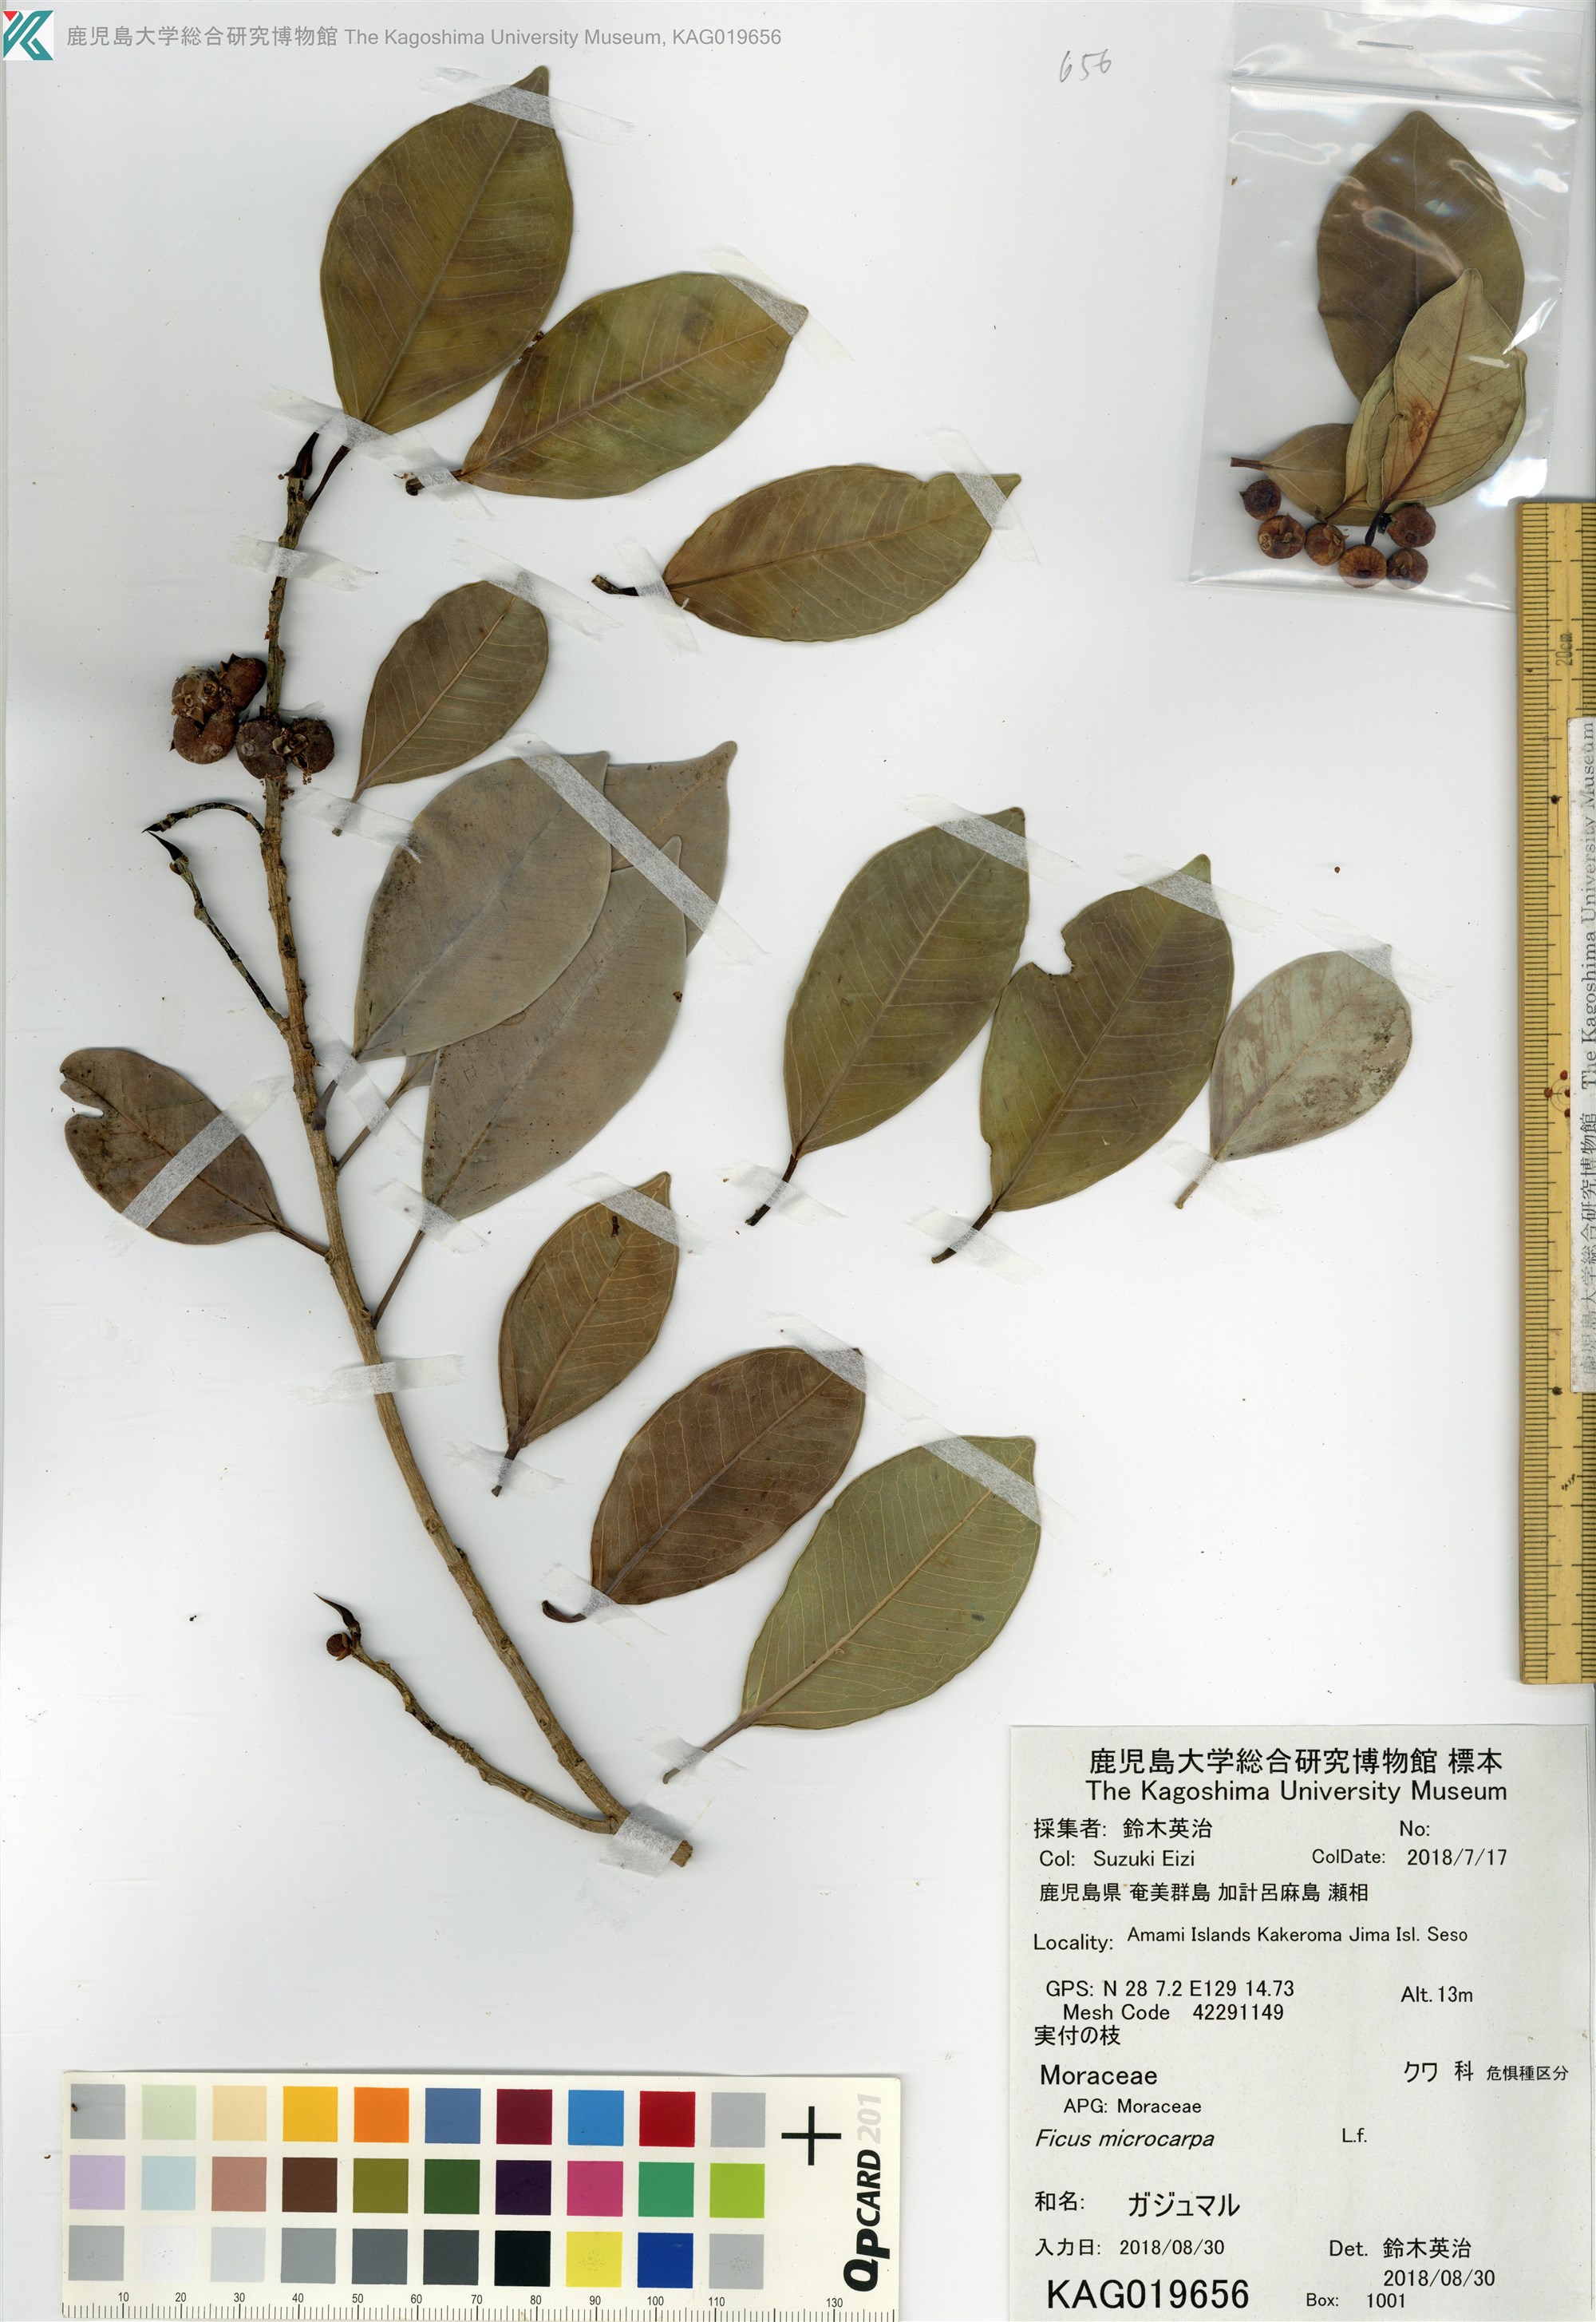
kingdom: Plantae
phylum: Tracheophyta
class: Magnoliopsida
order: Rosales
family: Moraceae
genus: Ficus
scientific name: Ficus microcarpa
